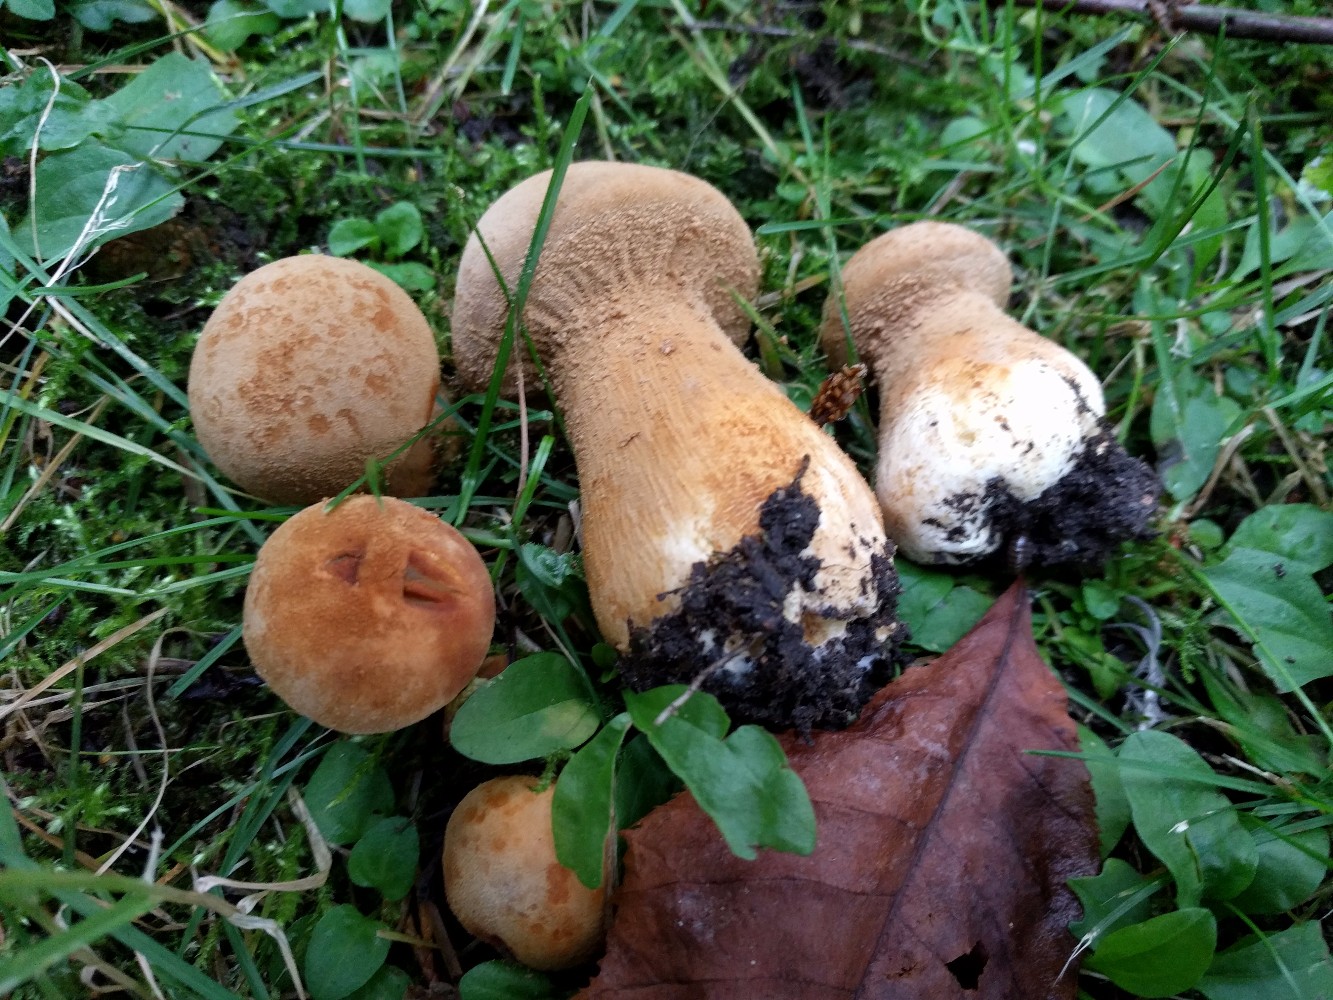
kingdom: Fungi
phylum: Basidiomycota
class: Agaricomycetes
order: Agaricales
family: Tricholomataceae
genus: Phaeolepiota
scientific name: Phaeolepiota aurea
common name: gyldenhat
